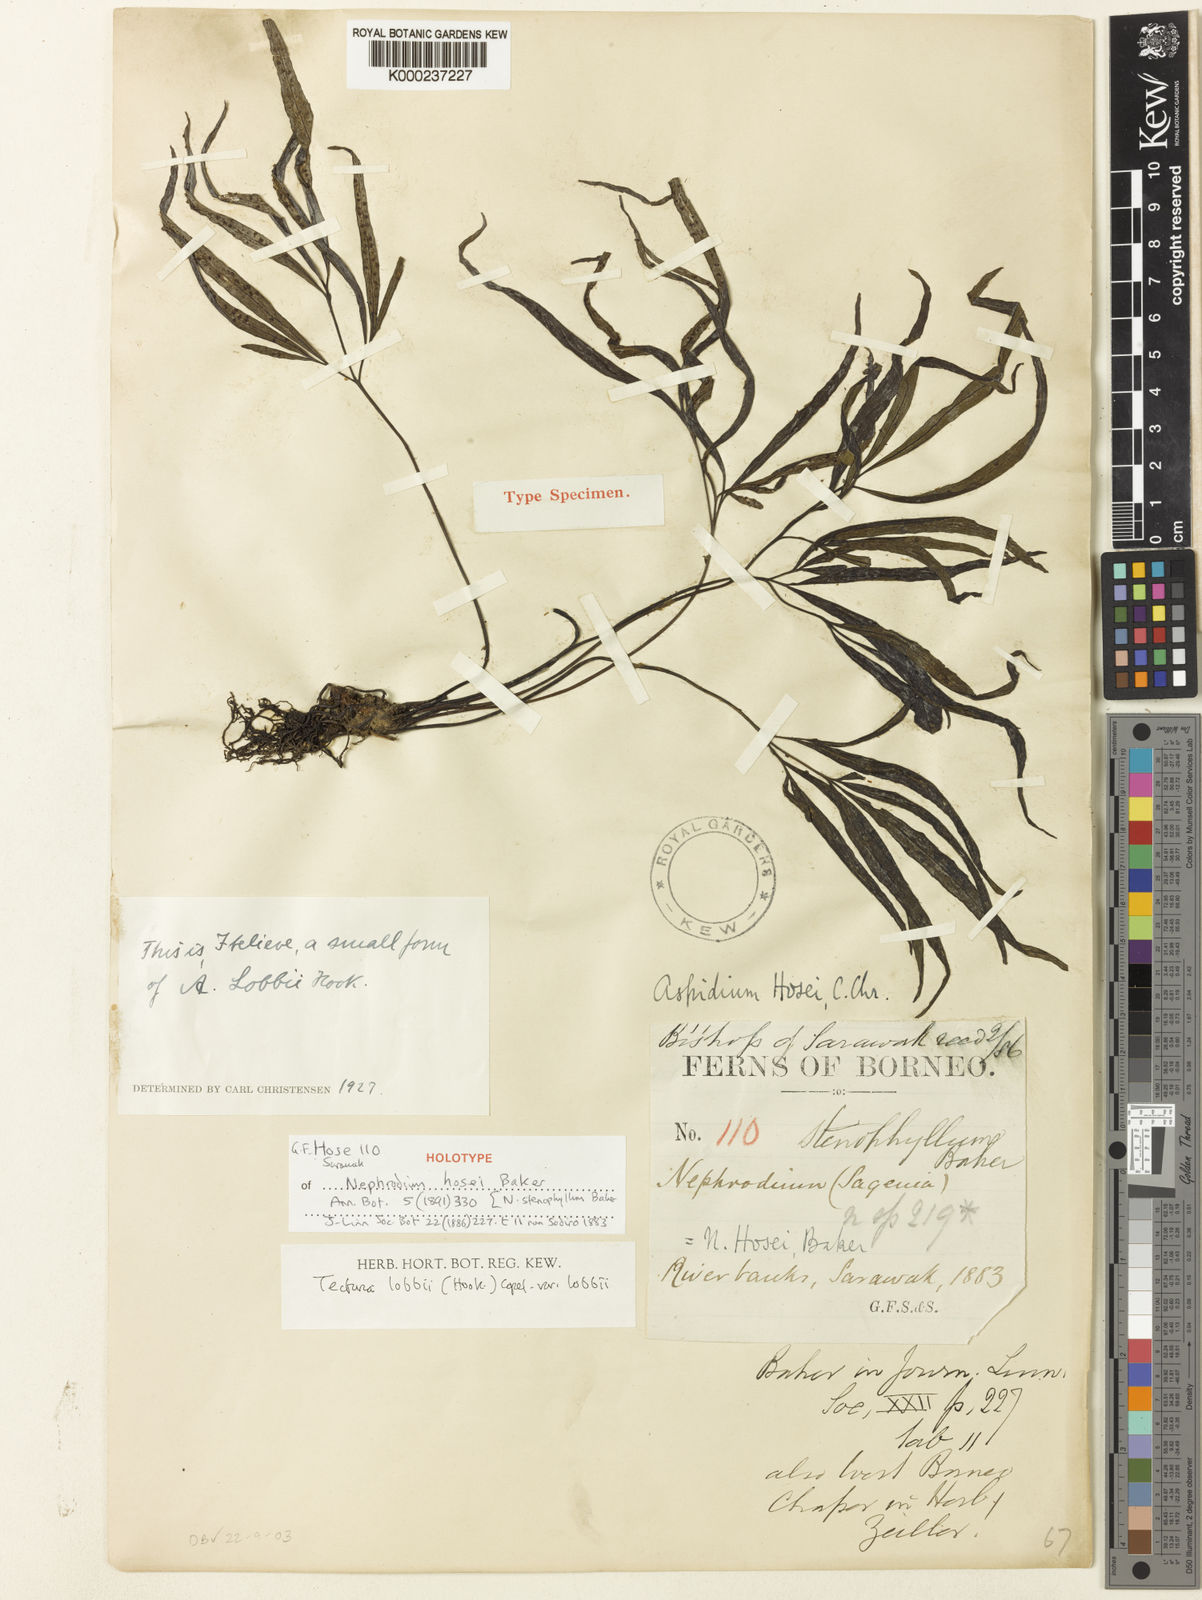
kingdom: Plantae
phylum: Tracheophyta
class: Polypodiopsida
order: Polypodiales
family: Tectariaceae
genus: Tectaria
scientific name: Tectaria lobbii
